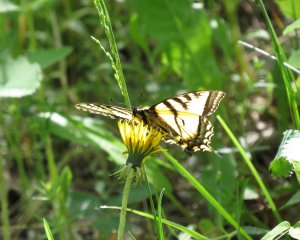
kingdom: Animalia
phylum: Arthropoda
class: Insecta
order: Lepidoptera
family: Papilionidae
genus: Pterourus
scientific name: Pterourus canadensis
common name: Canadian Tiger Swallowtail
